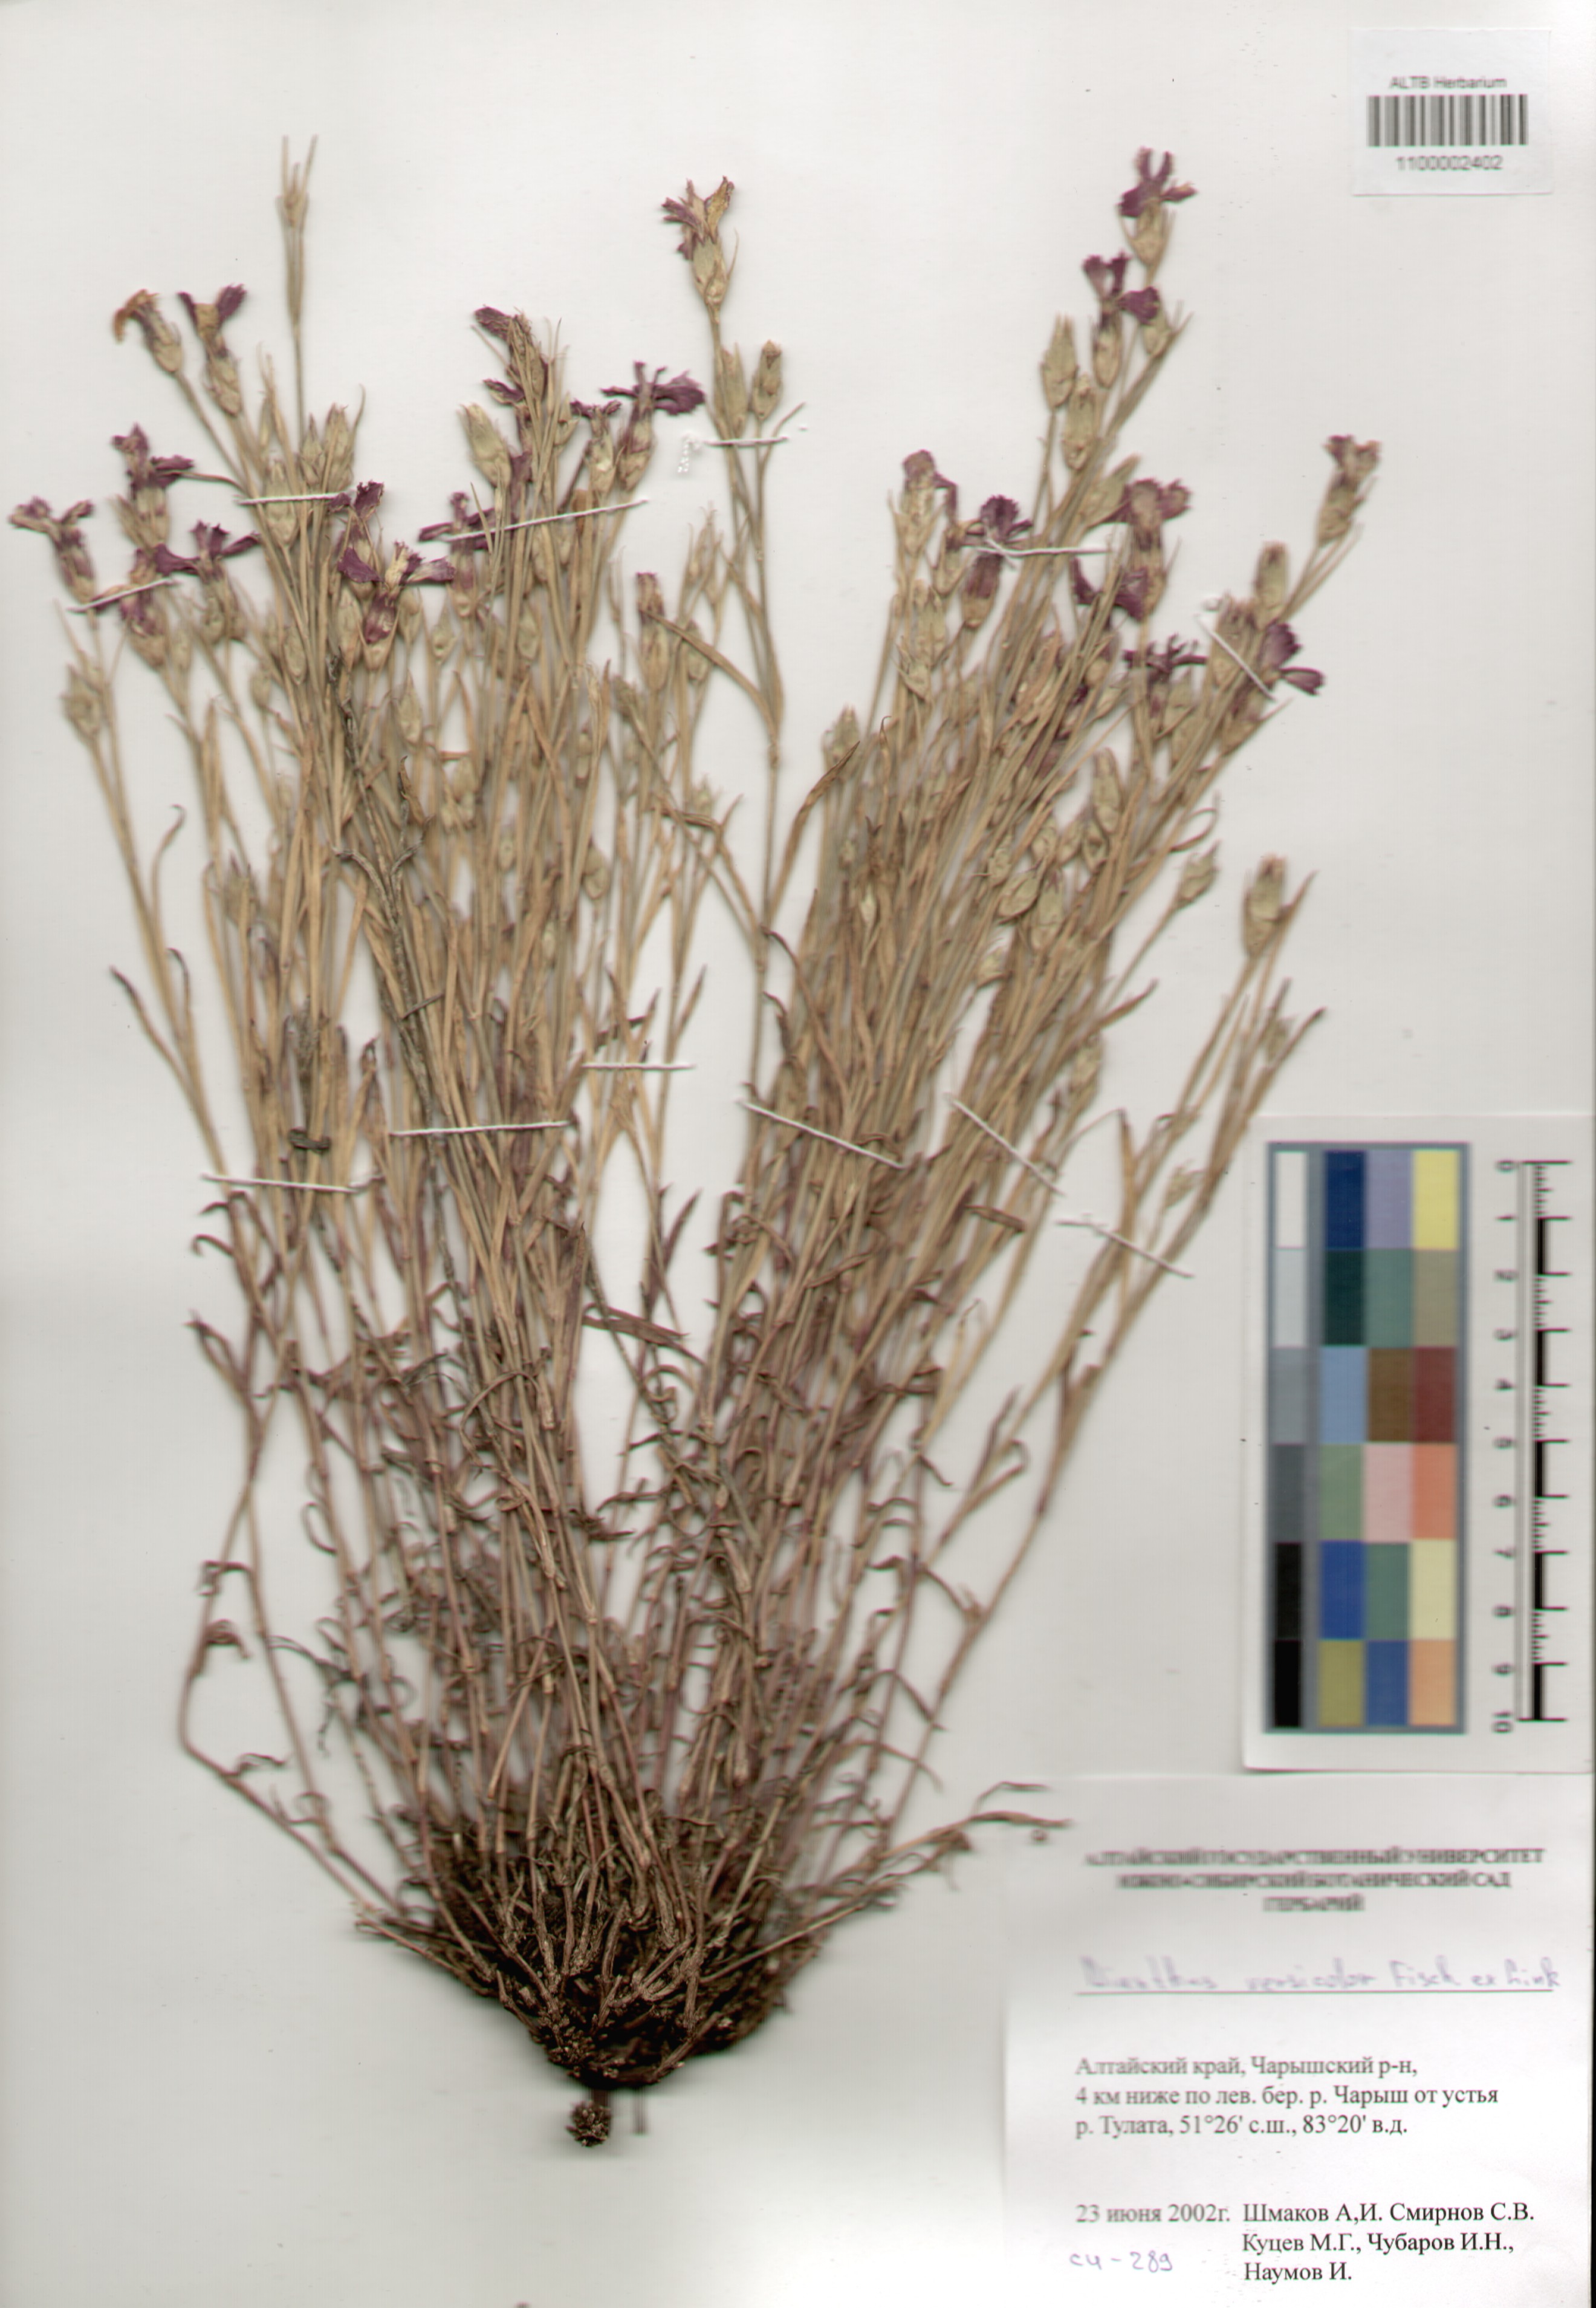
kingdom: Plantae
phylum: Tracheophyta
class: Magnoliopsida
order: Caryophyllales
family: Caryophyllaceae
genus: Dianthus
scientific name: Dianthus chinensis
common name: Rainbow pink
